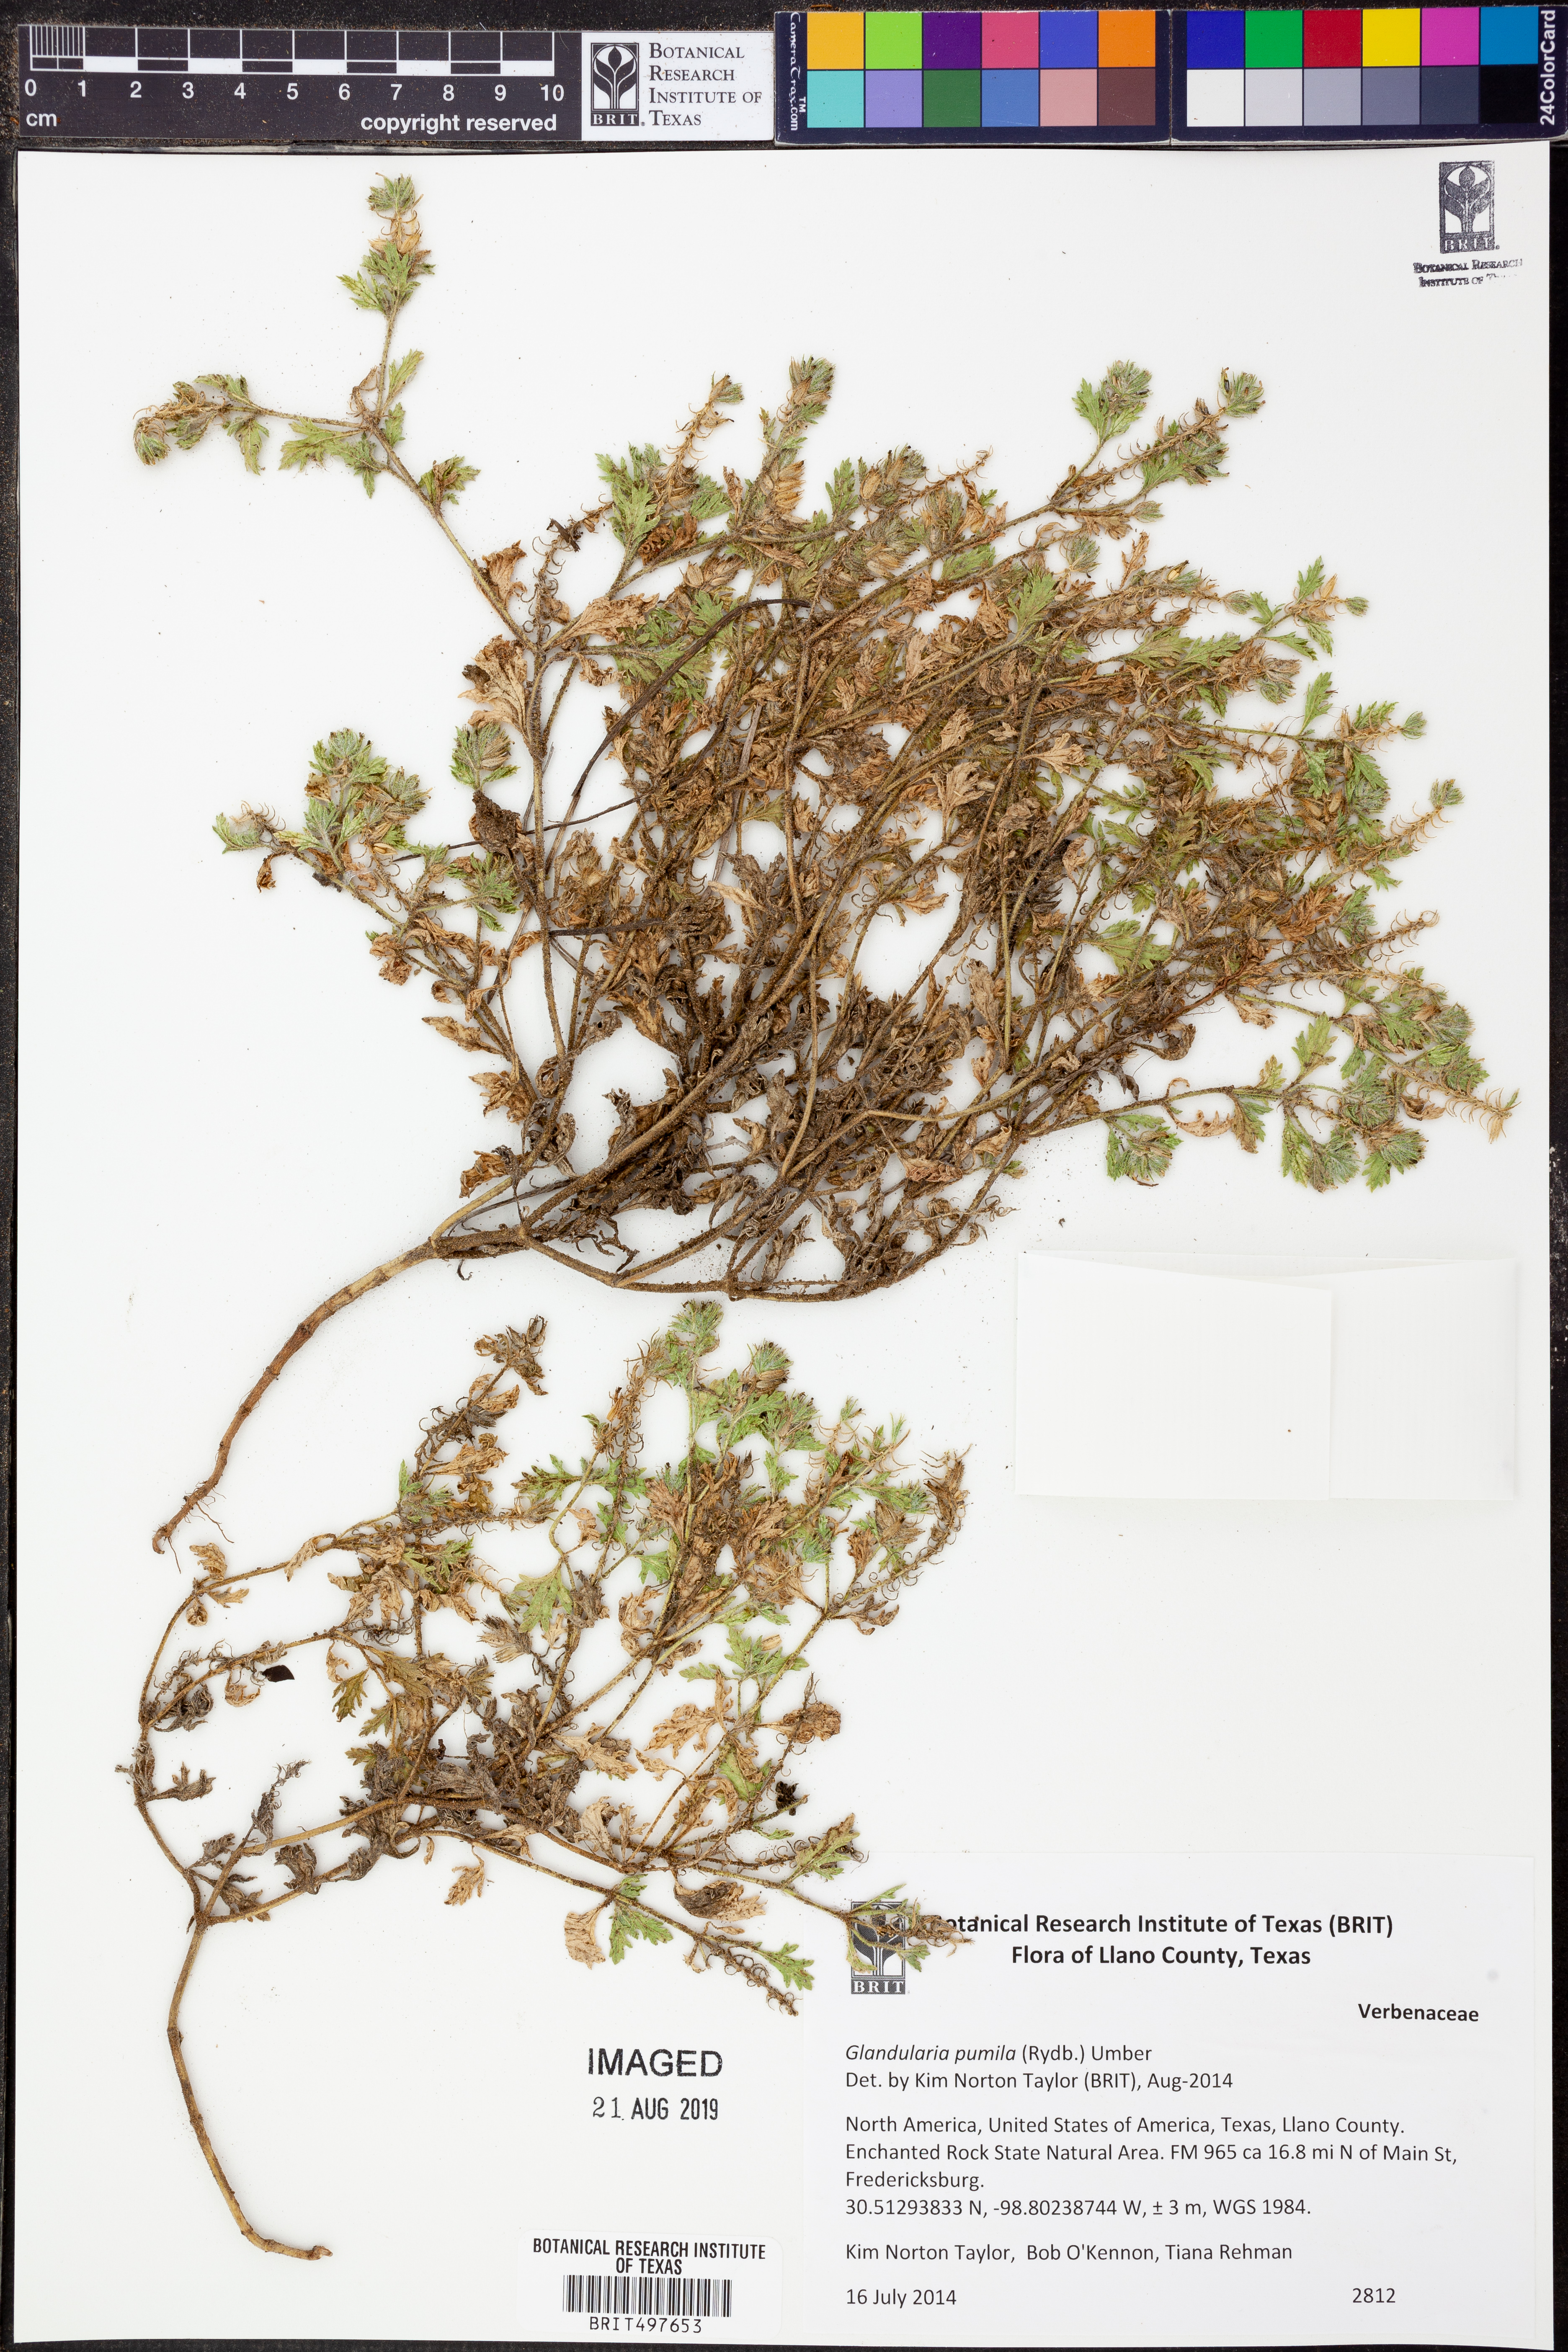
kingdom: Plantae
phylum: Tracheophyta
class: Magnoliopsida
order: Lamiales
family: Verbenaceae
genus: Verbena
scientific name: Verbena pumila
